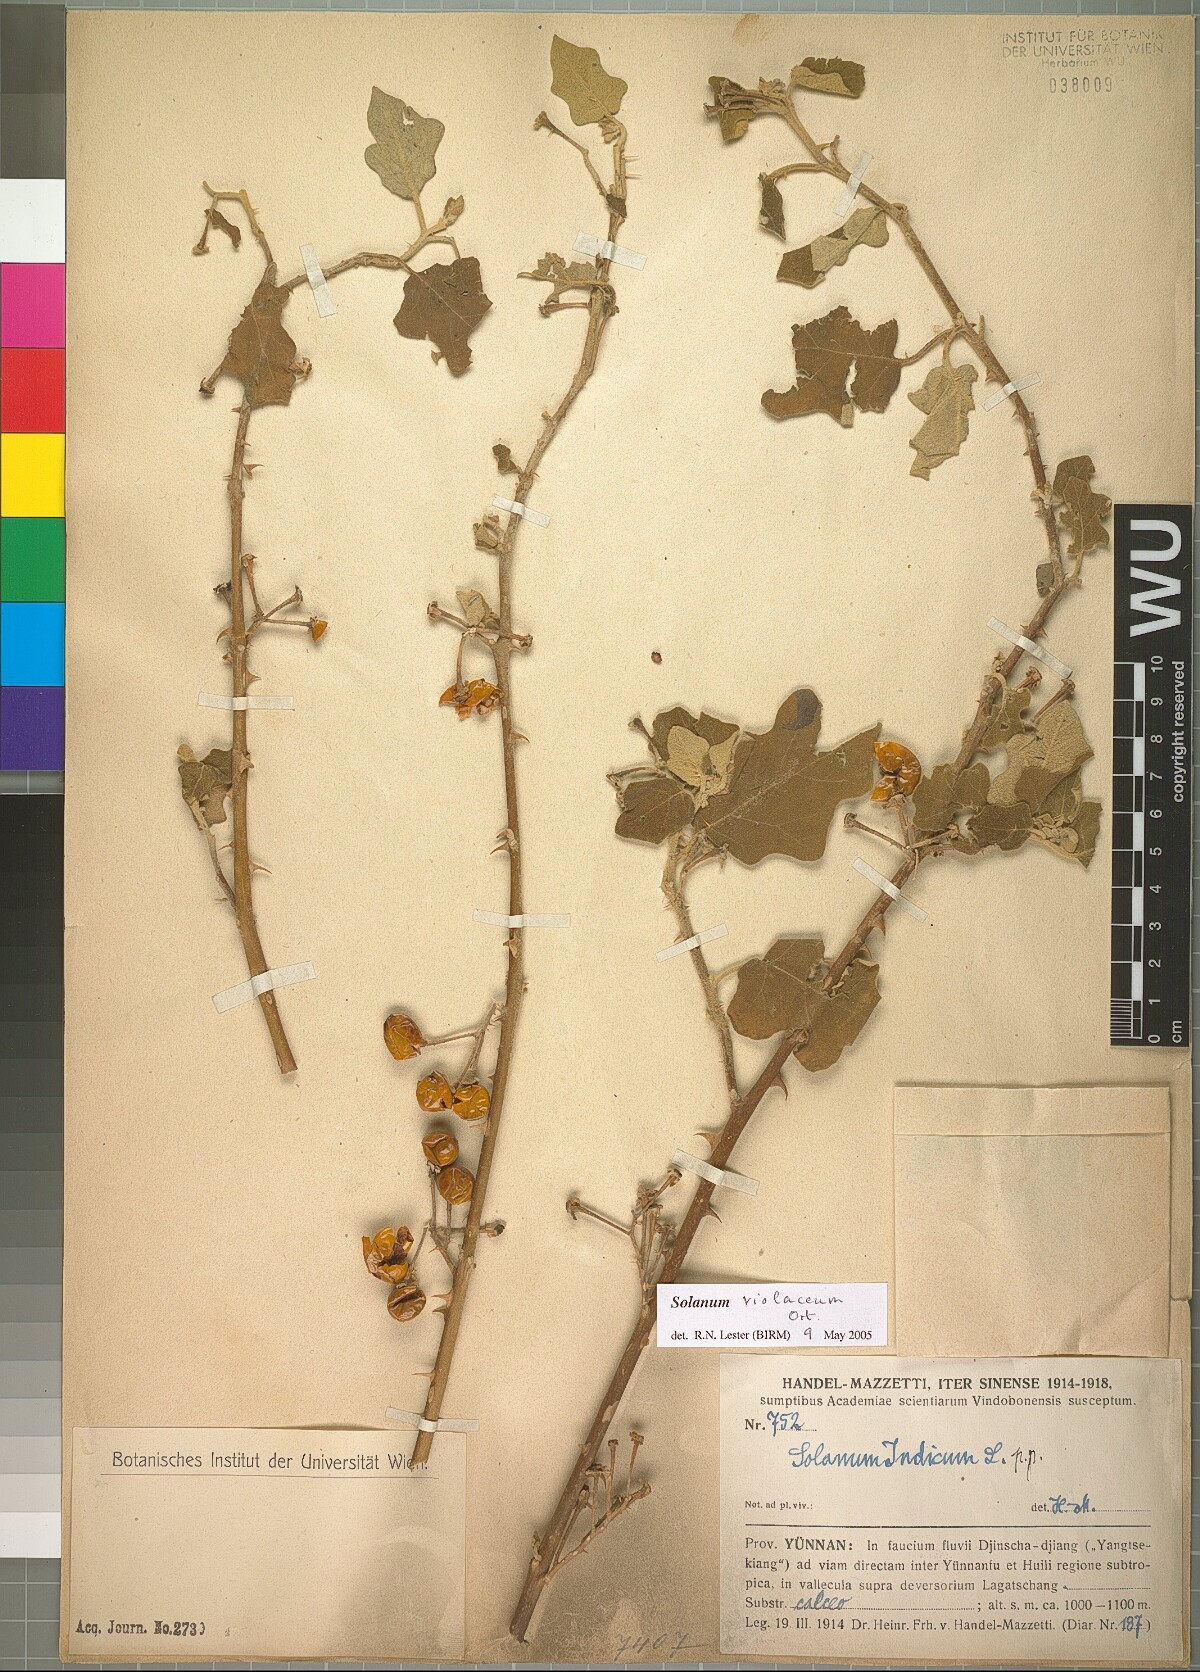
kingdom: Plantae
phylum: Tracheophyta
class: Magnoliopsida
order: Solanales
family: Solanaceae
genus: Solanum
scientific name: Solanum violaceum
